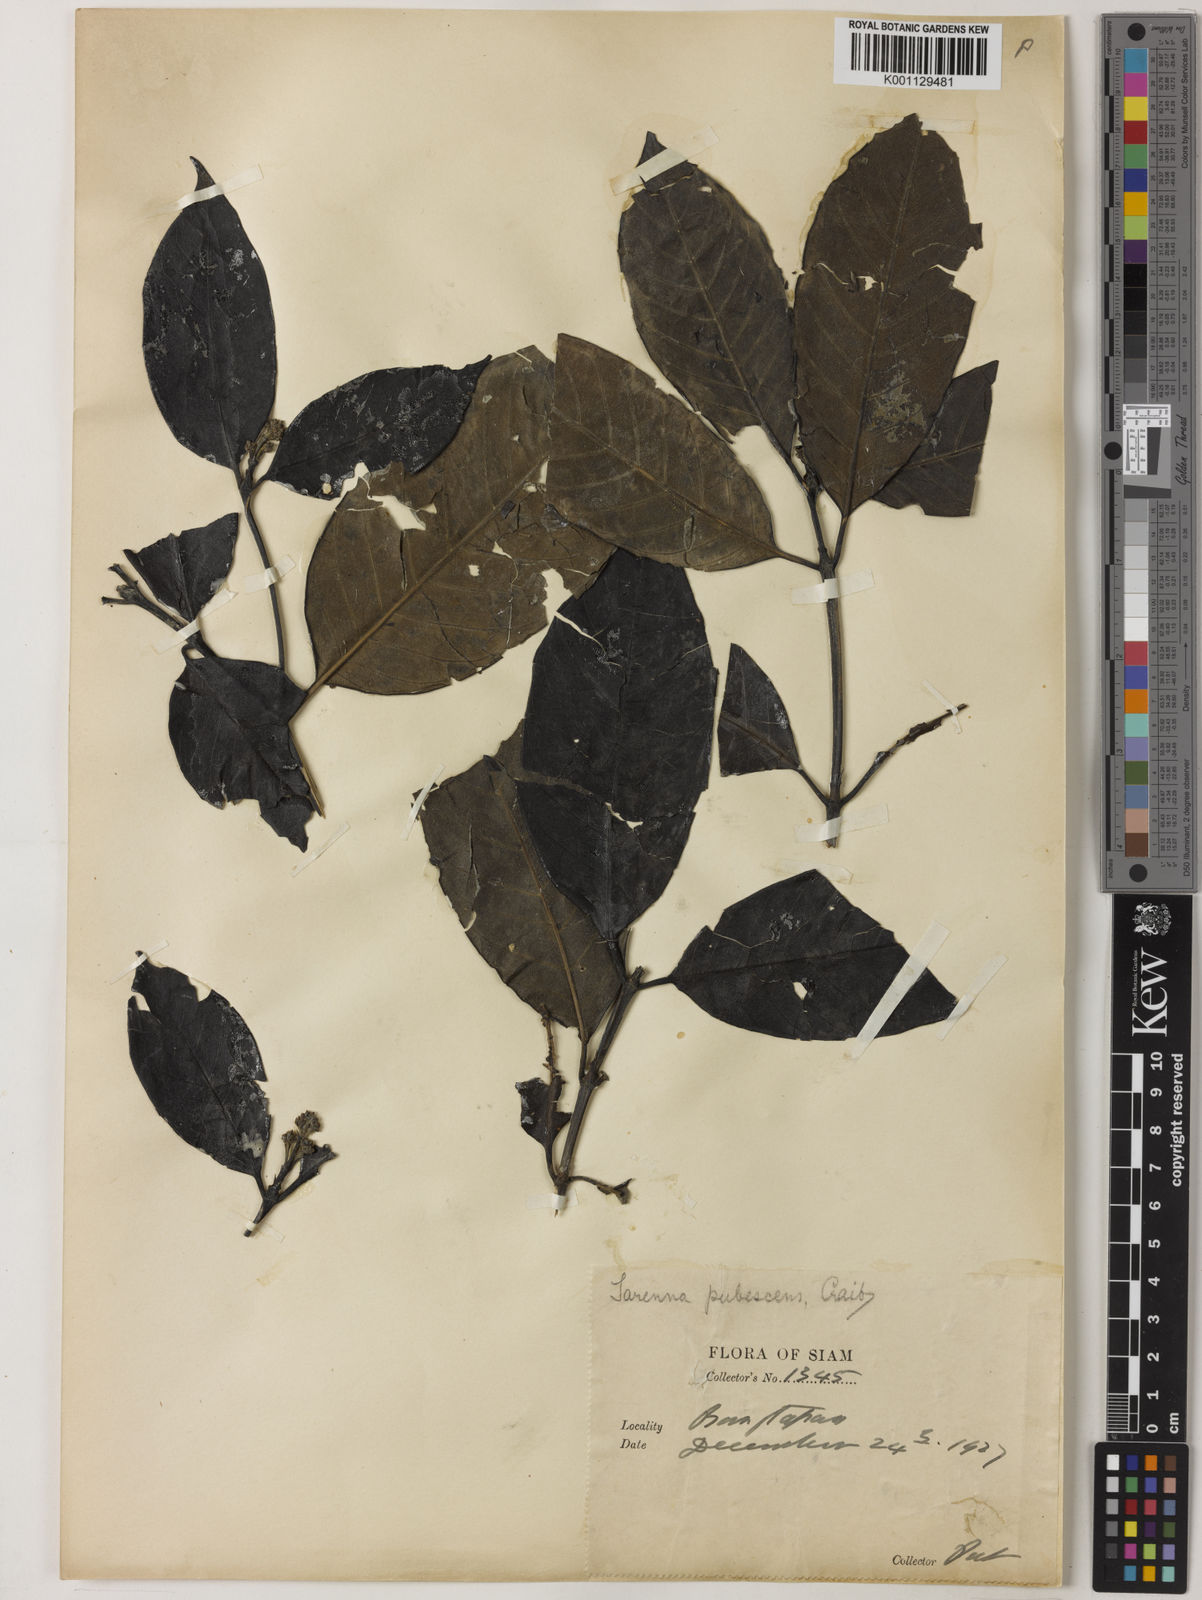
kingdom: Plantae
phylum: Tracheophyta
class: Magnoliopsida
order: Gentianales
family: Rubiaceae
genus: Tarenna
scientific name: Tarenna cinerea
